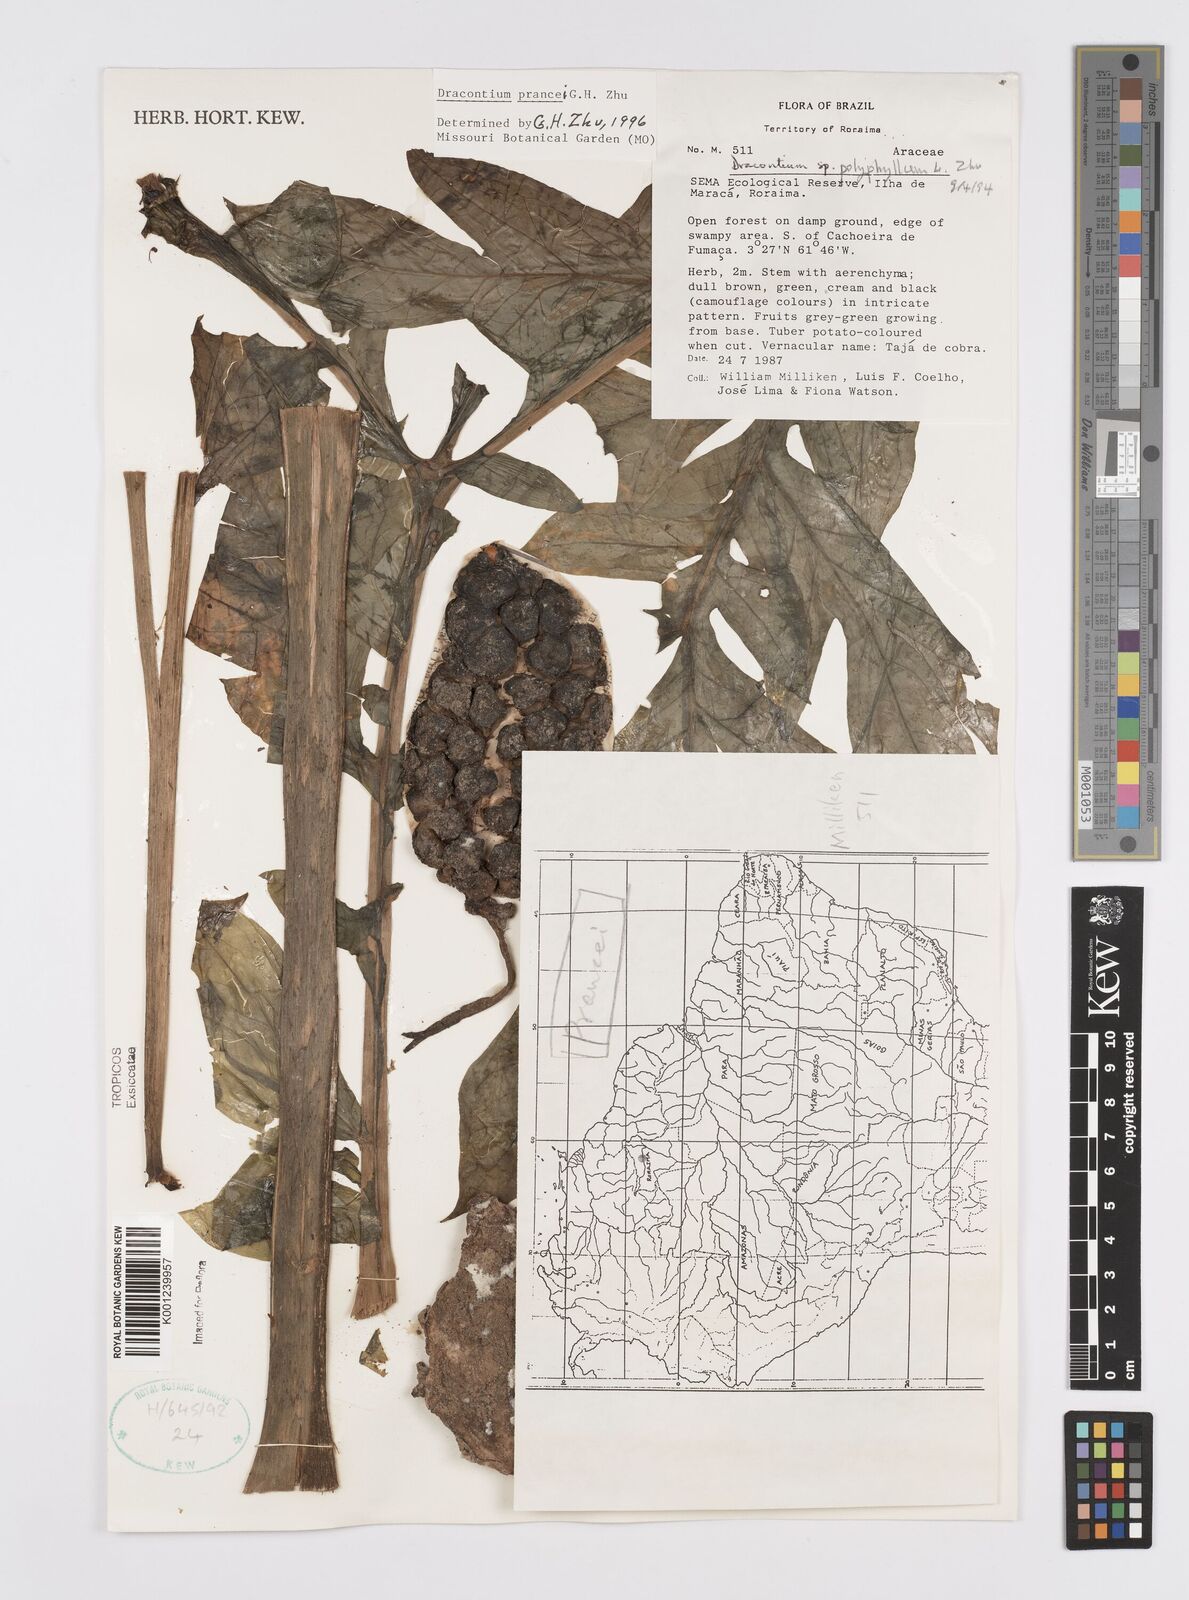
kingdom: Plantae
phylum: Tracheophyta
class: Liliopsida
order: Alismatales
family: Araceae
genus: Dracontium
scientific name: Dracontium prancei
